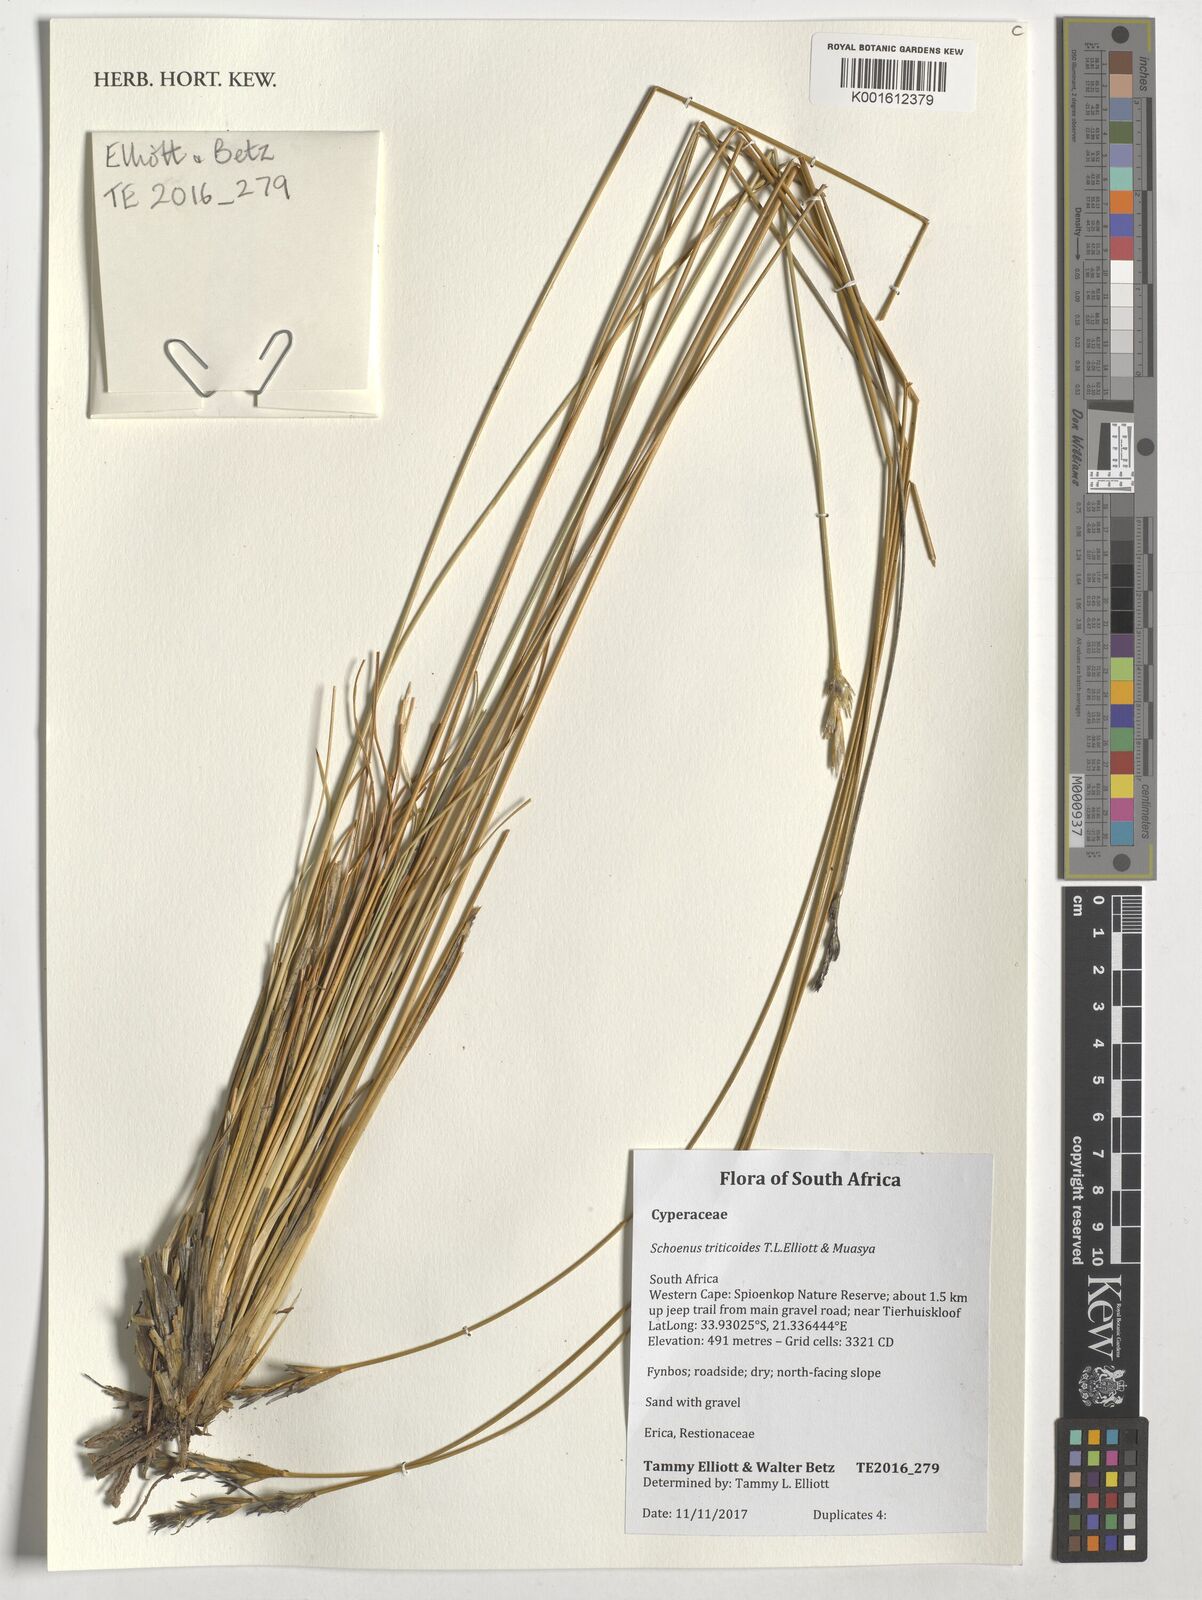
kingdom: Plantae
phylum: Tracheophyta
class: Liliopsida
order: Poales
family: Cyperaceae
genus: Schoenus
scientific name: Schoenus triticoides
